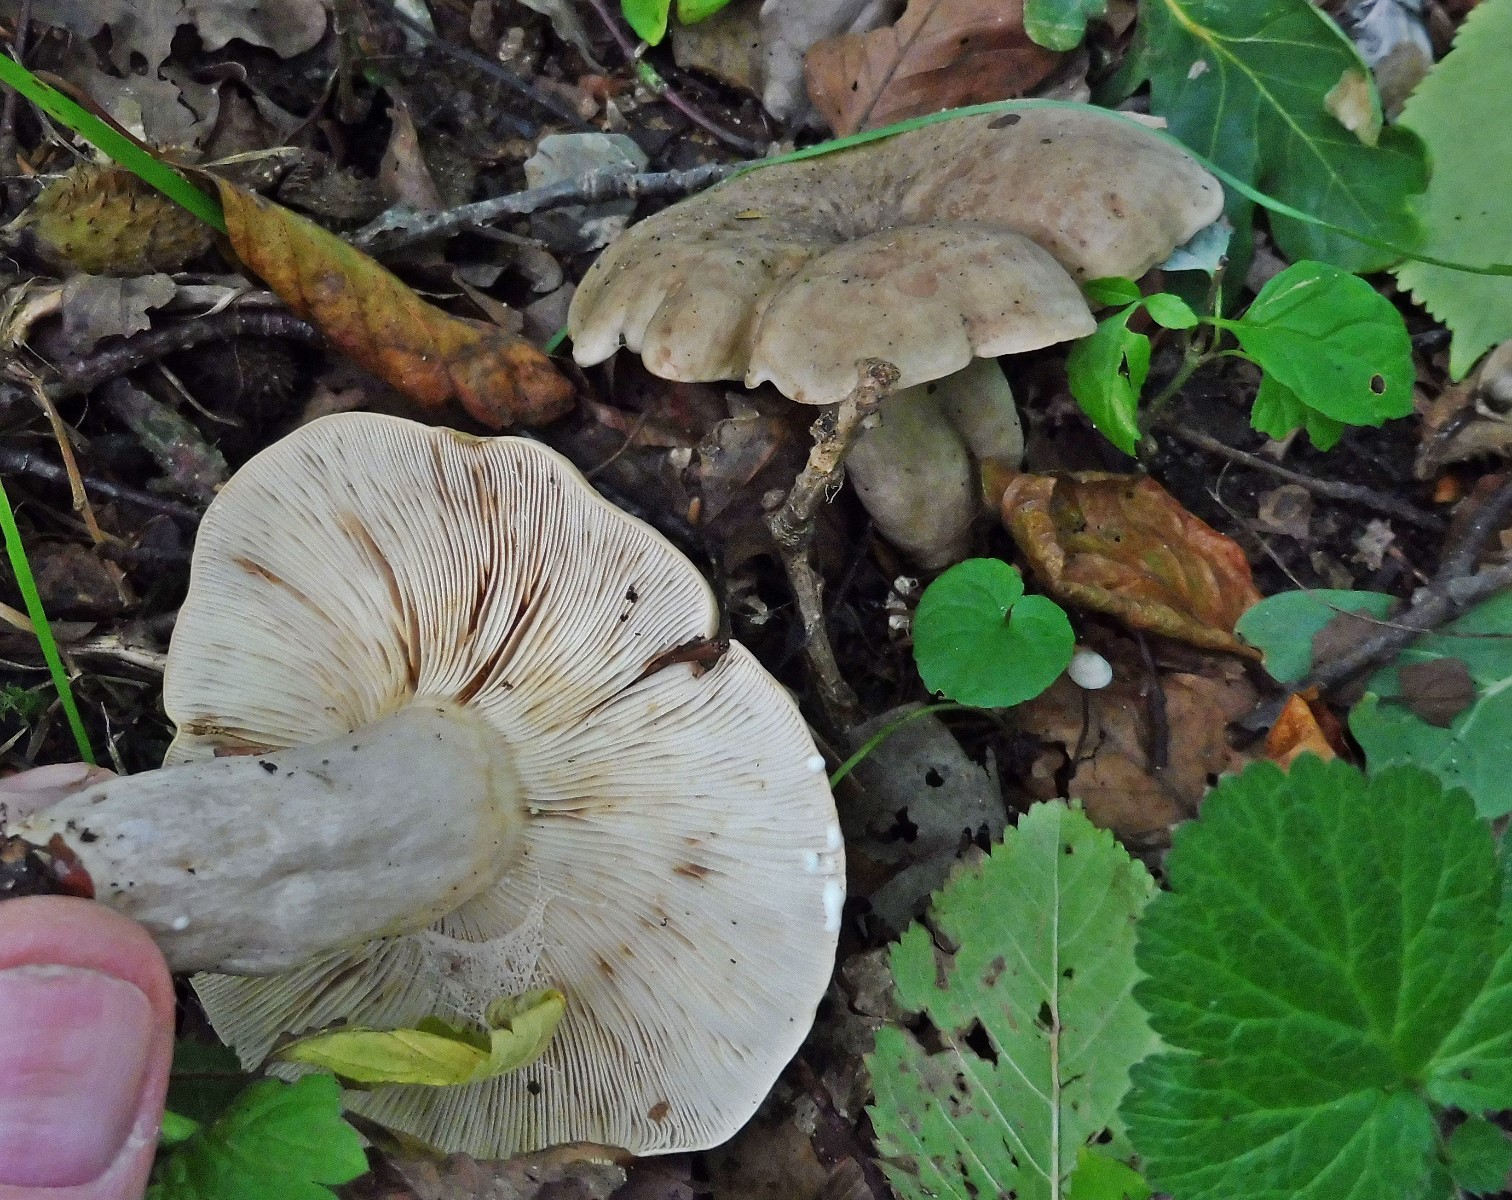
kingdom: Fungi
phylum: Basidiomycota
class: Agaricomycetes
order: Russulales
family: Russulaceae
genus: Lactarius
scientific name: Lactarius fluens
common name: lysrandet mælkehat
